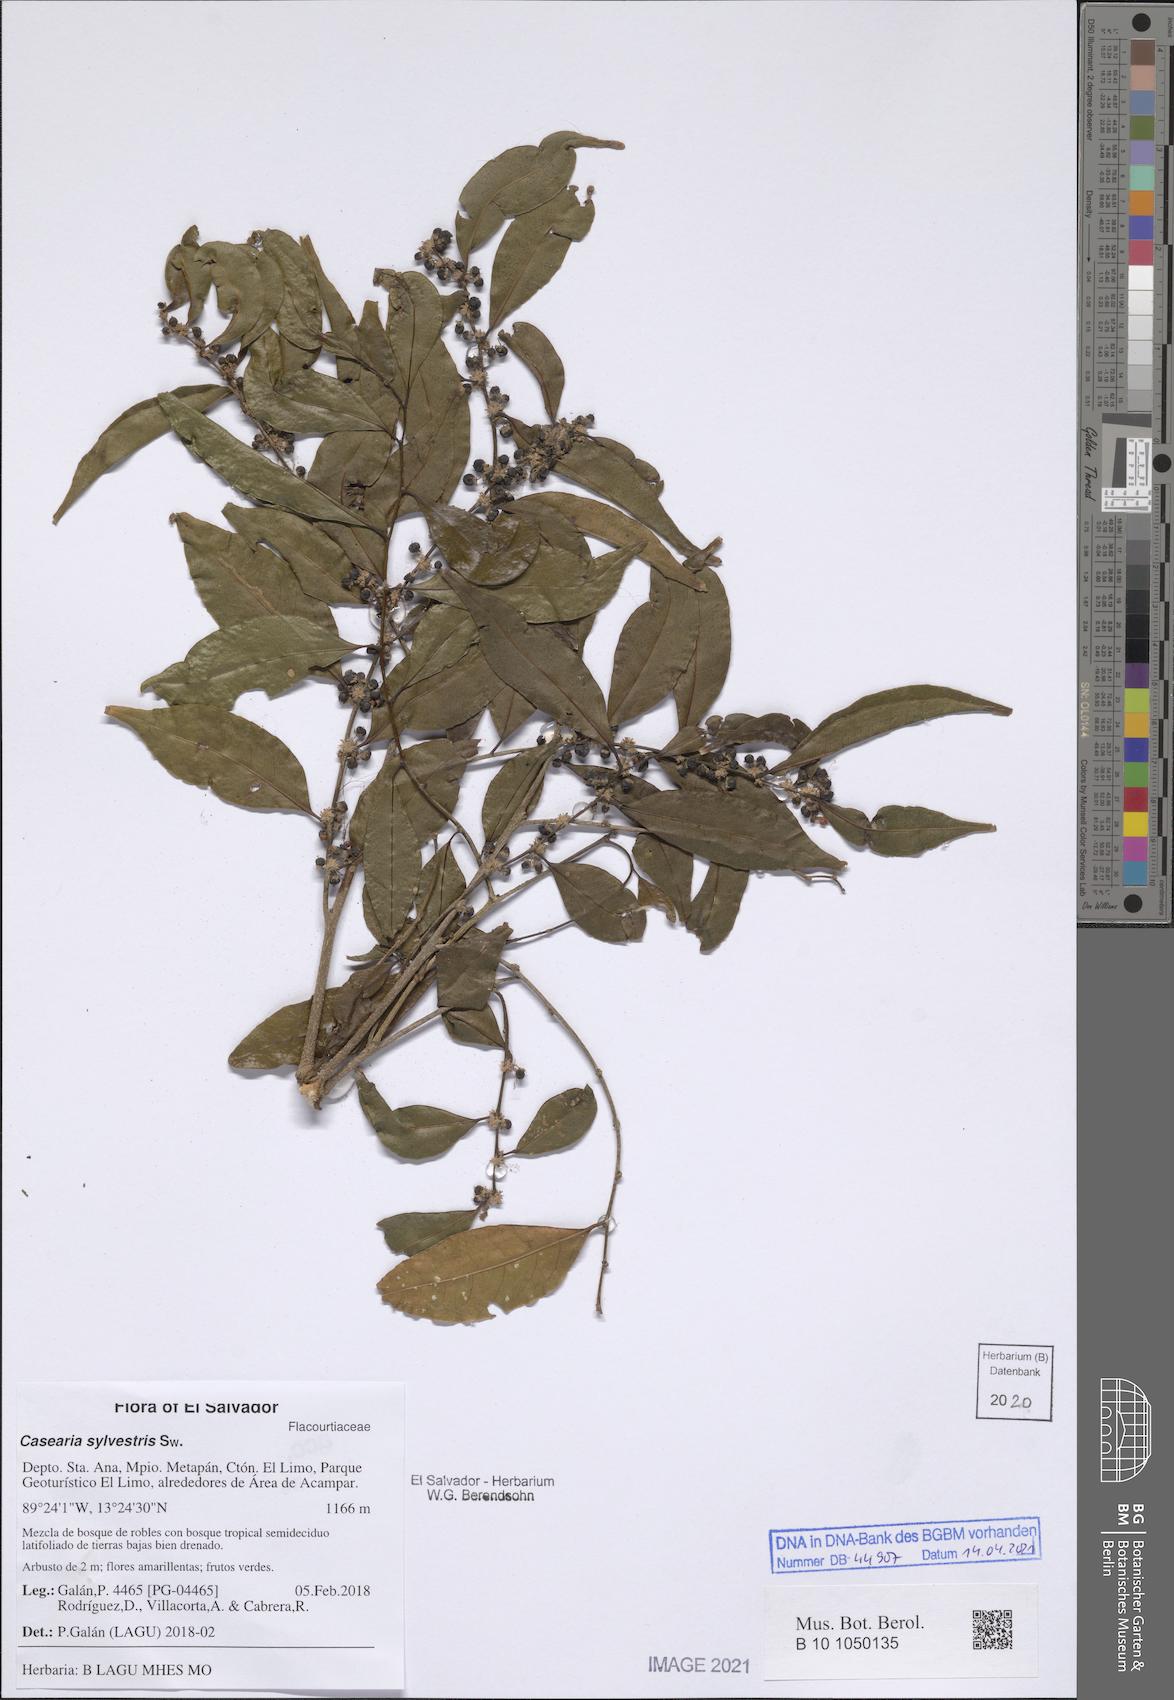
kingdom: Plantae
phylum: Tracheophyta
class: Magnoliopsida
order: Malpighiales
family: Salicaceae
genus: Casearia
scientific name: Casearia sylvestris
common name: Wild sage
